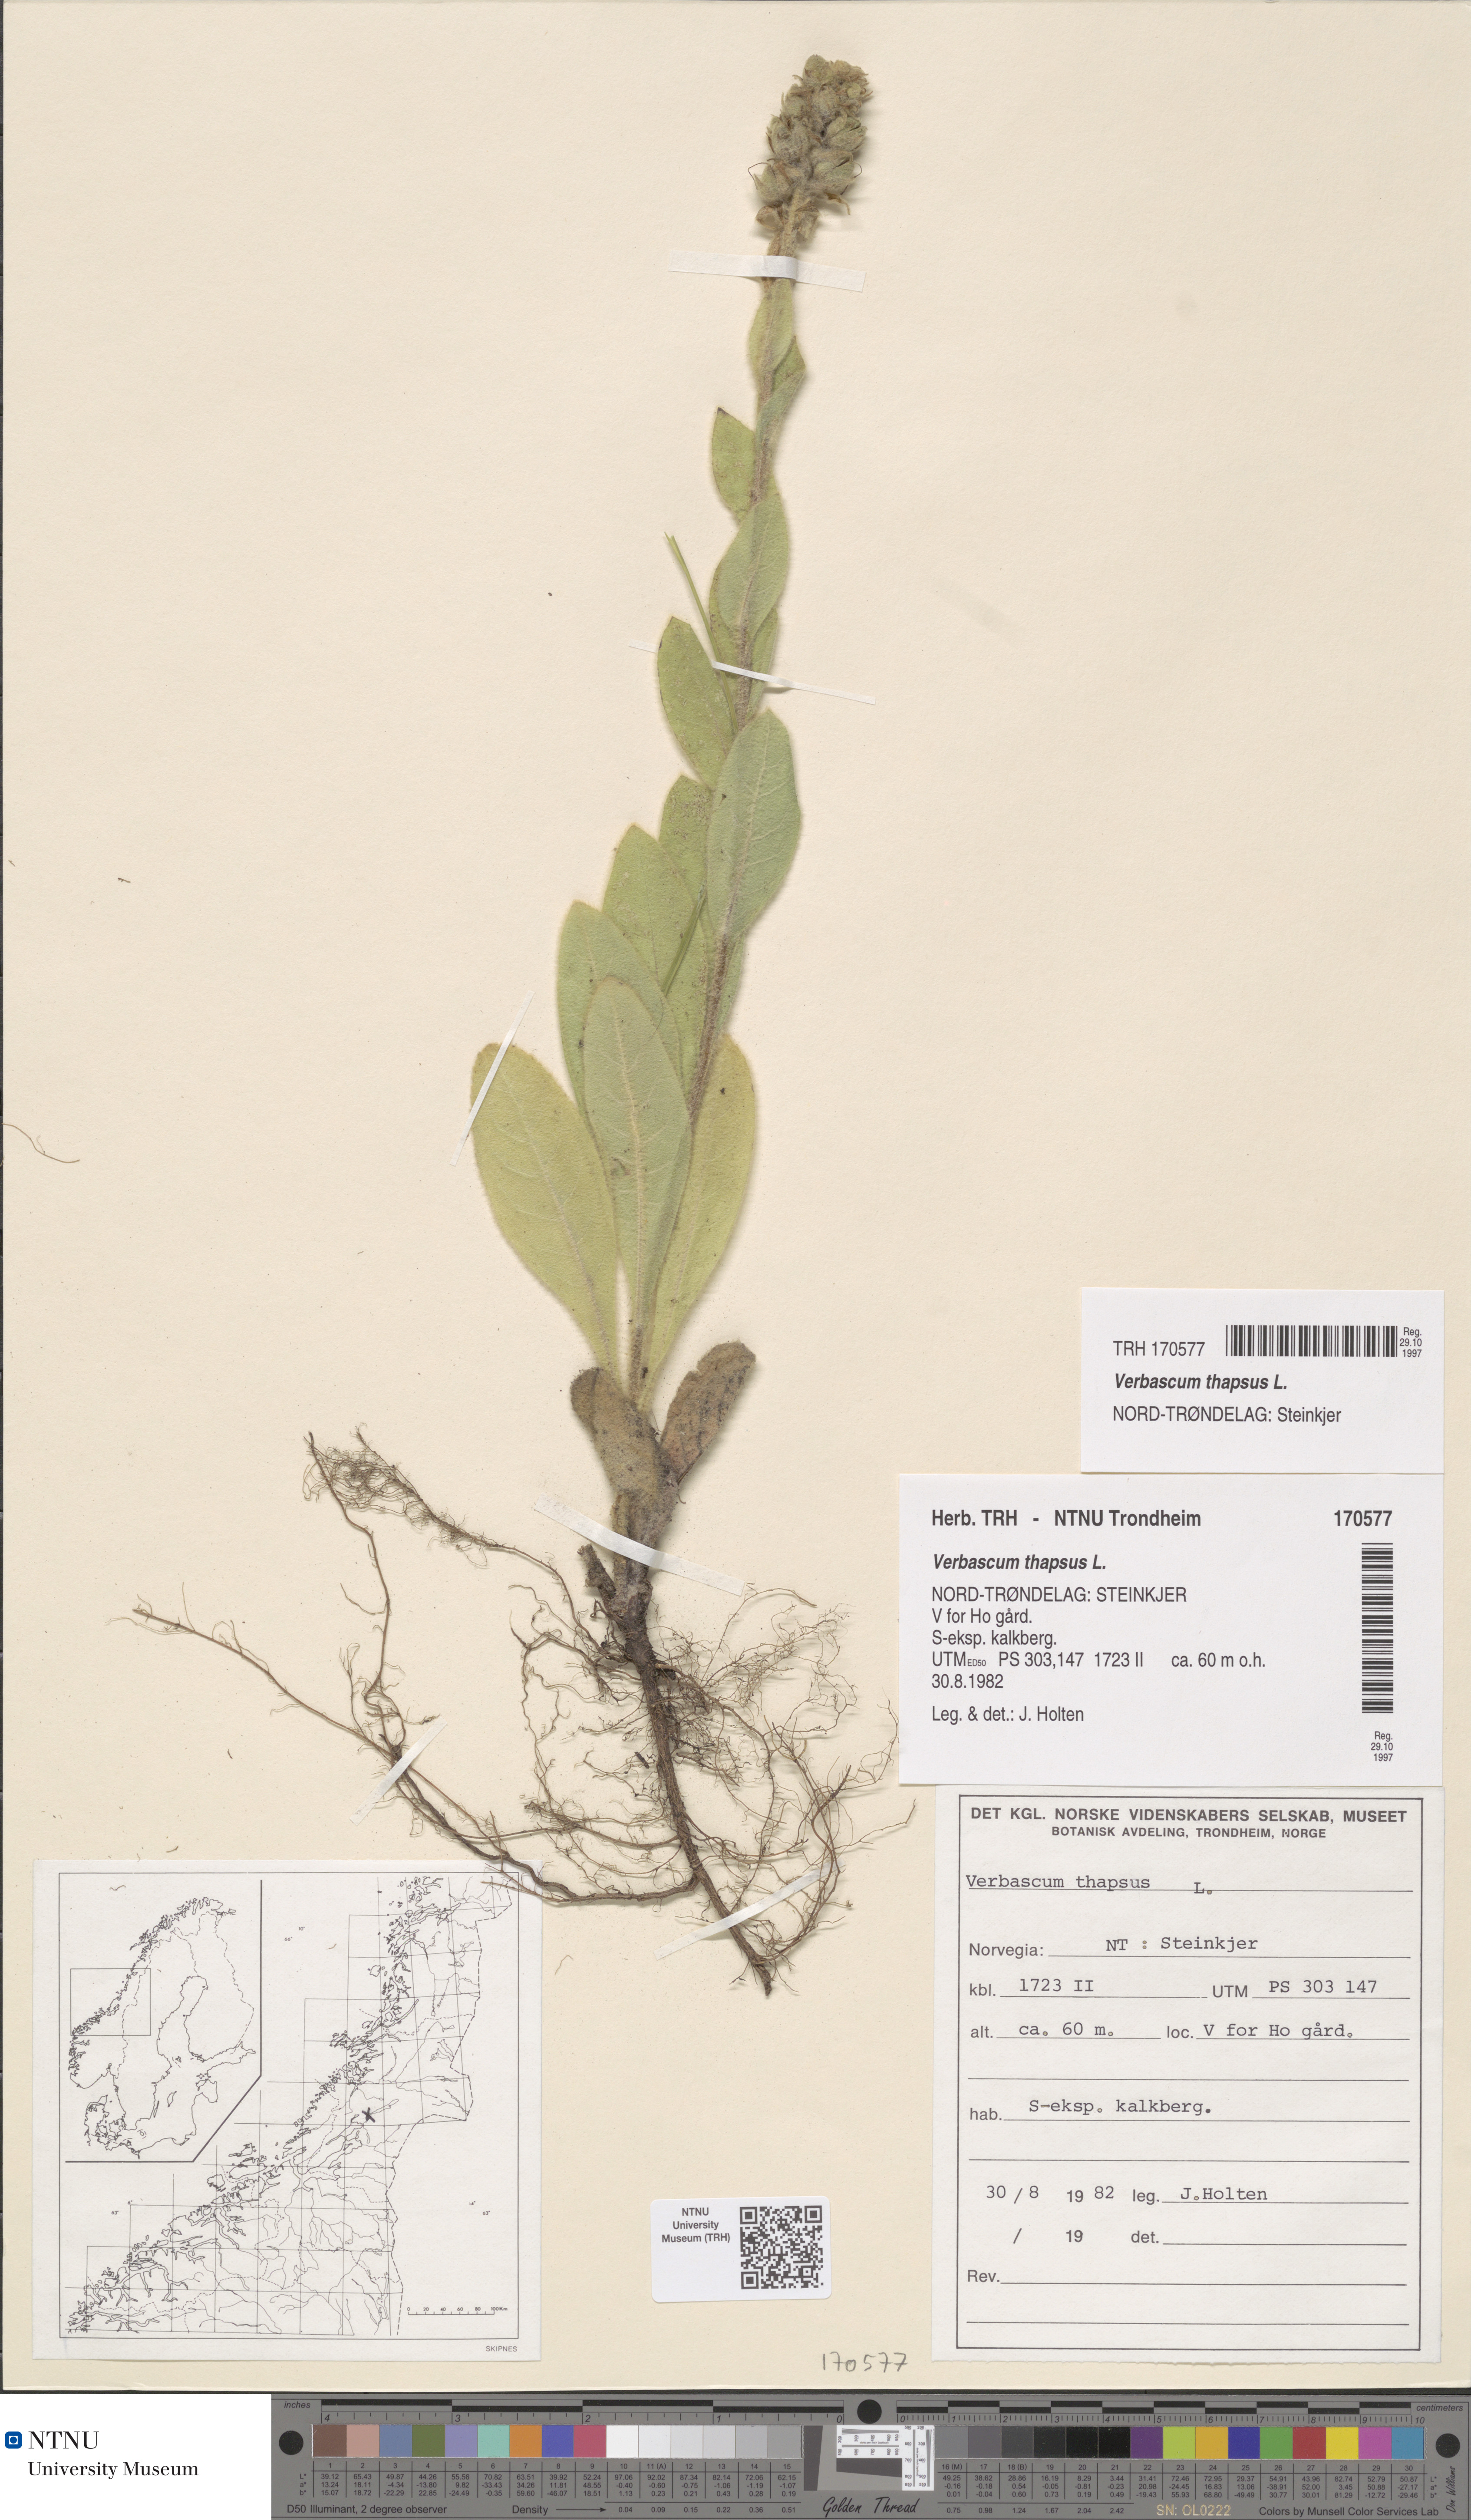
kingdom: Plantae
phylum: Tracheophyta
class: Magnoliopsida
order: Lamiales
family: Scrophulariaceae
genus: Verbascum
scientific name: Verbascum thapsus
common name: Common mullein
